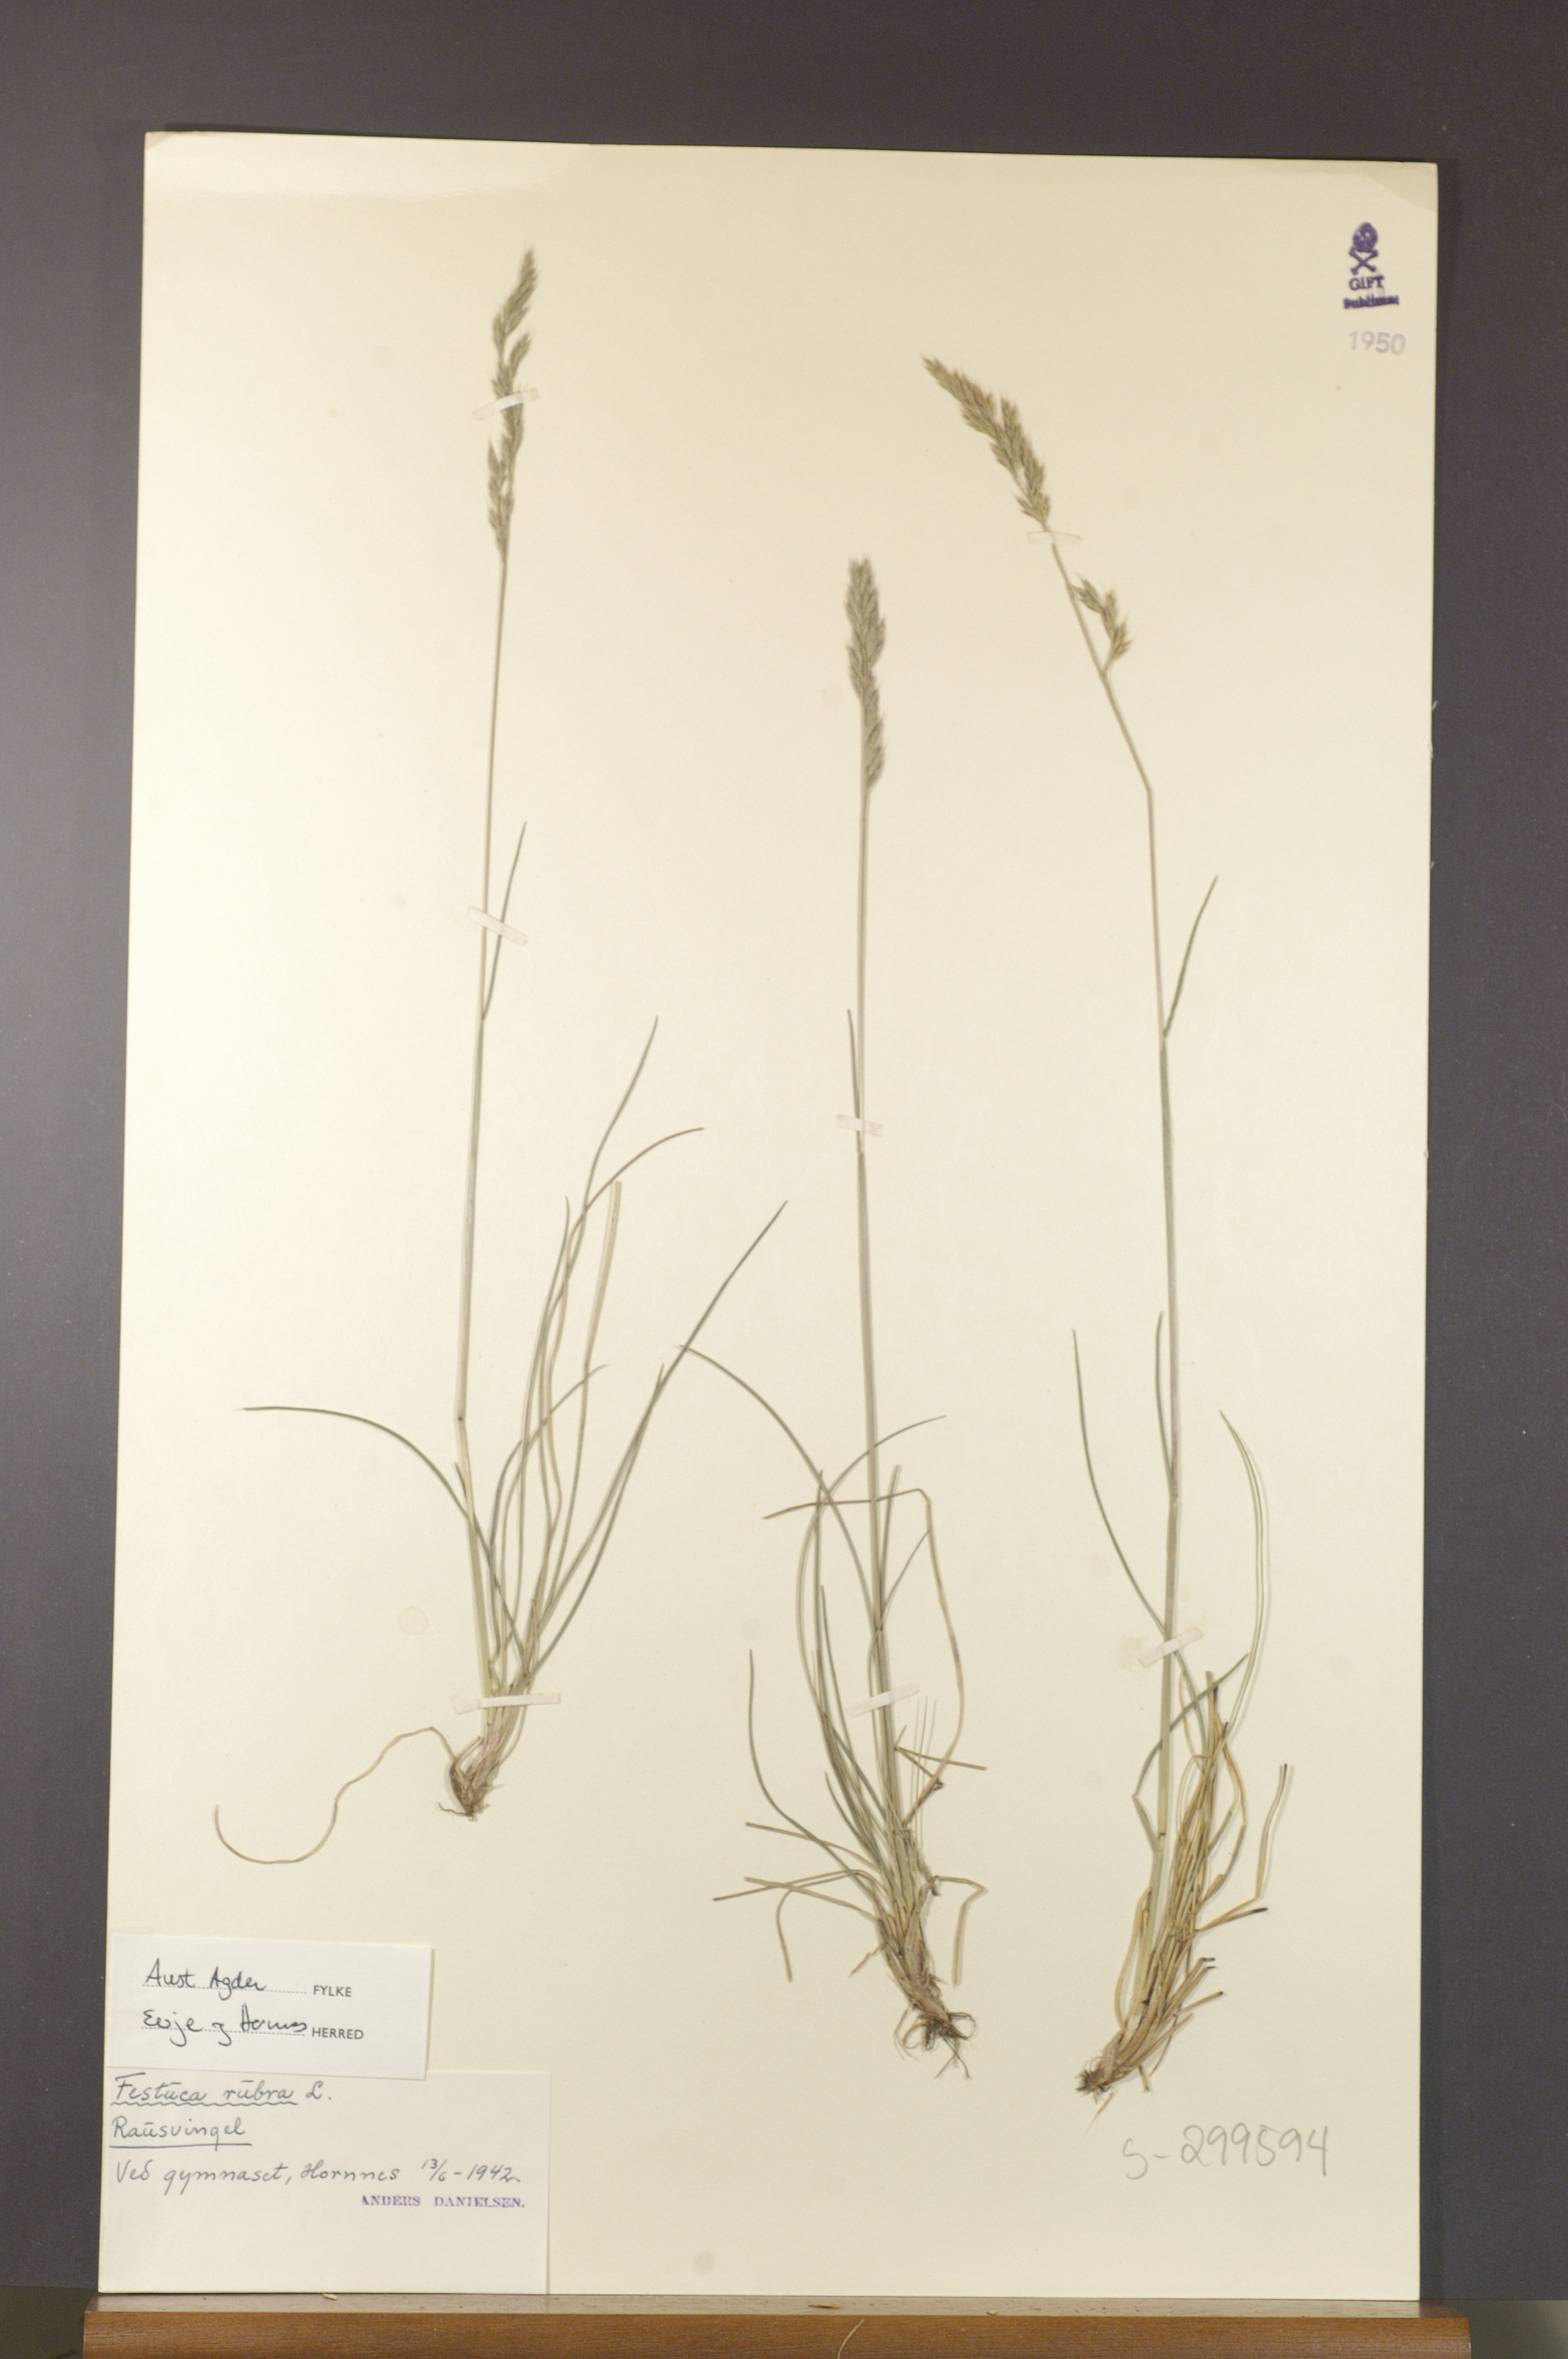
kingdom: Plantae
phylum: Tracheophyta
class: Liliopsida
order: Poales
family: Poaceae
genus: Festuca
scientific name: Festuca rubra
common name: Red fescue
